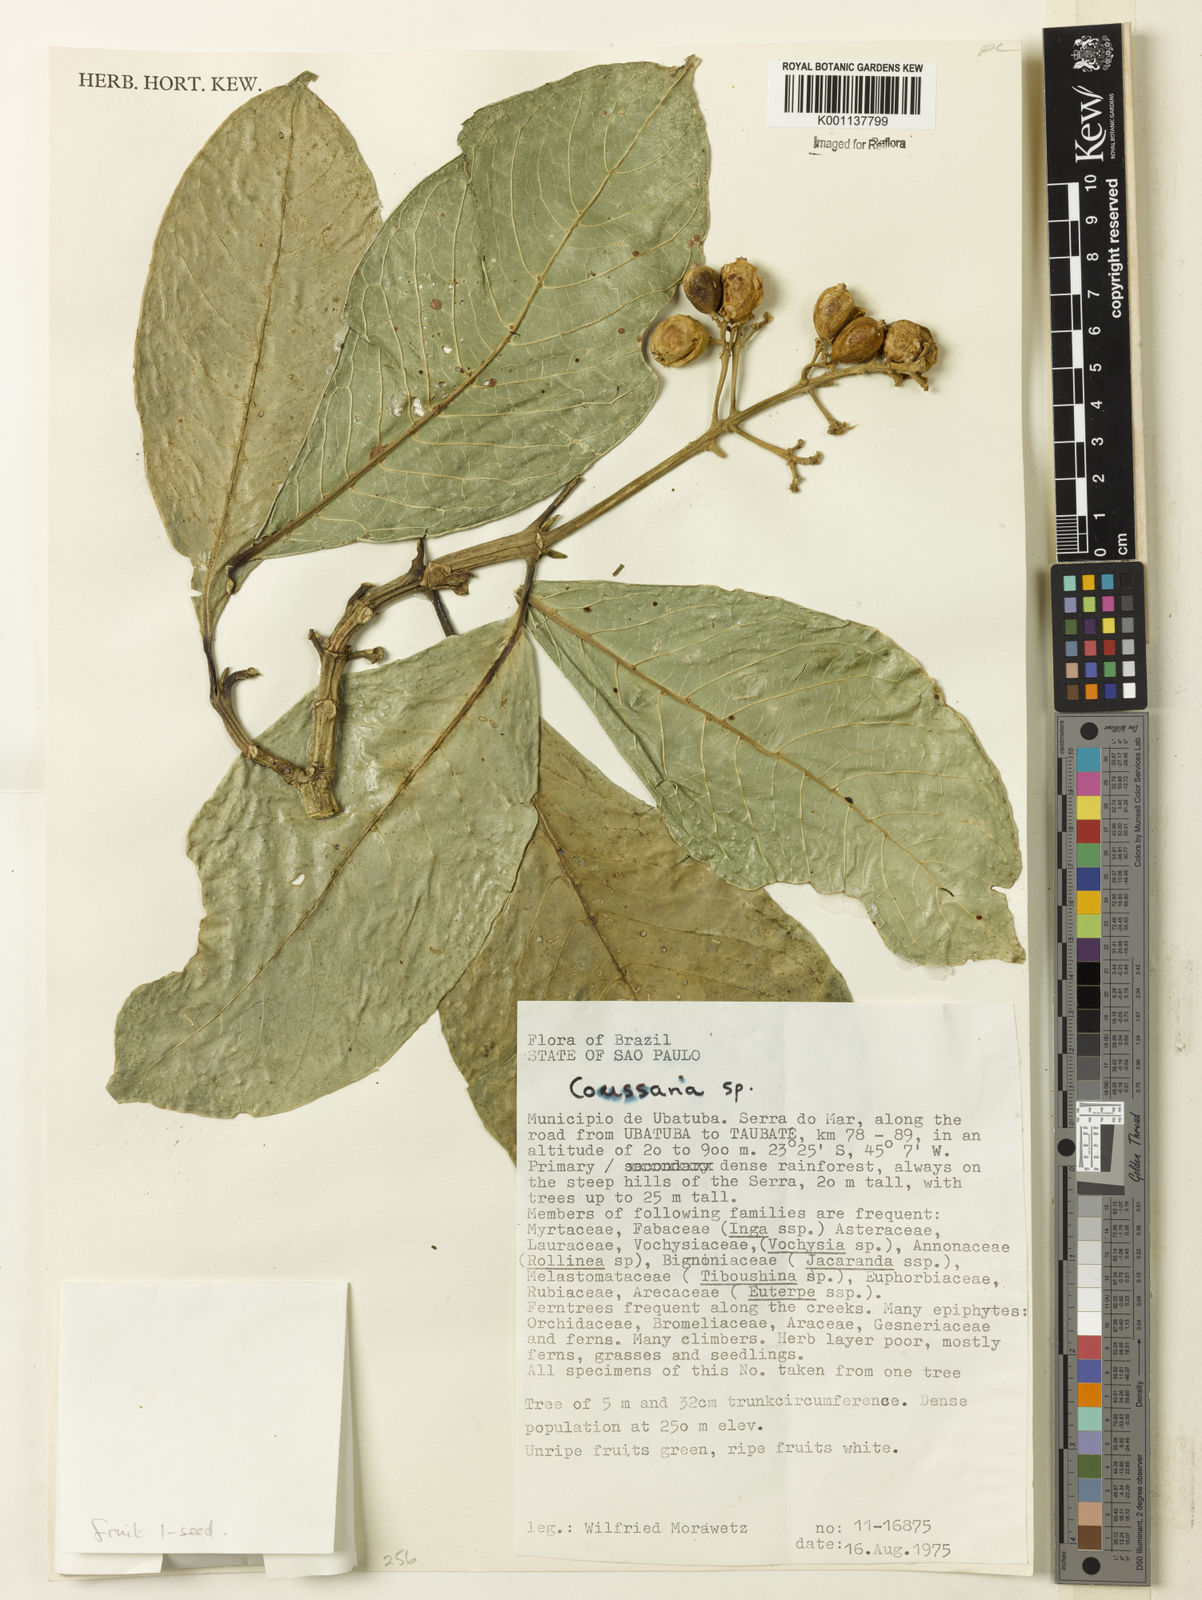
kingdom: Plantae
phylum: Tracheophyta
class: Magnoliopsida
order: Gentianales
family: Rubiaceae
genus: Coussarea
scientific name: Coussarea
